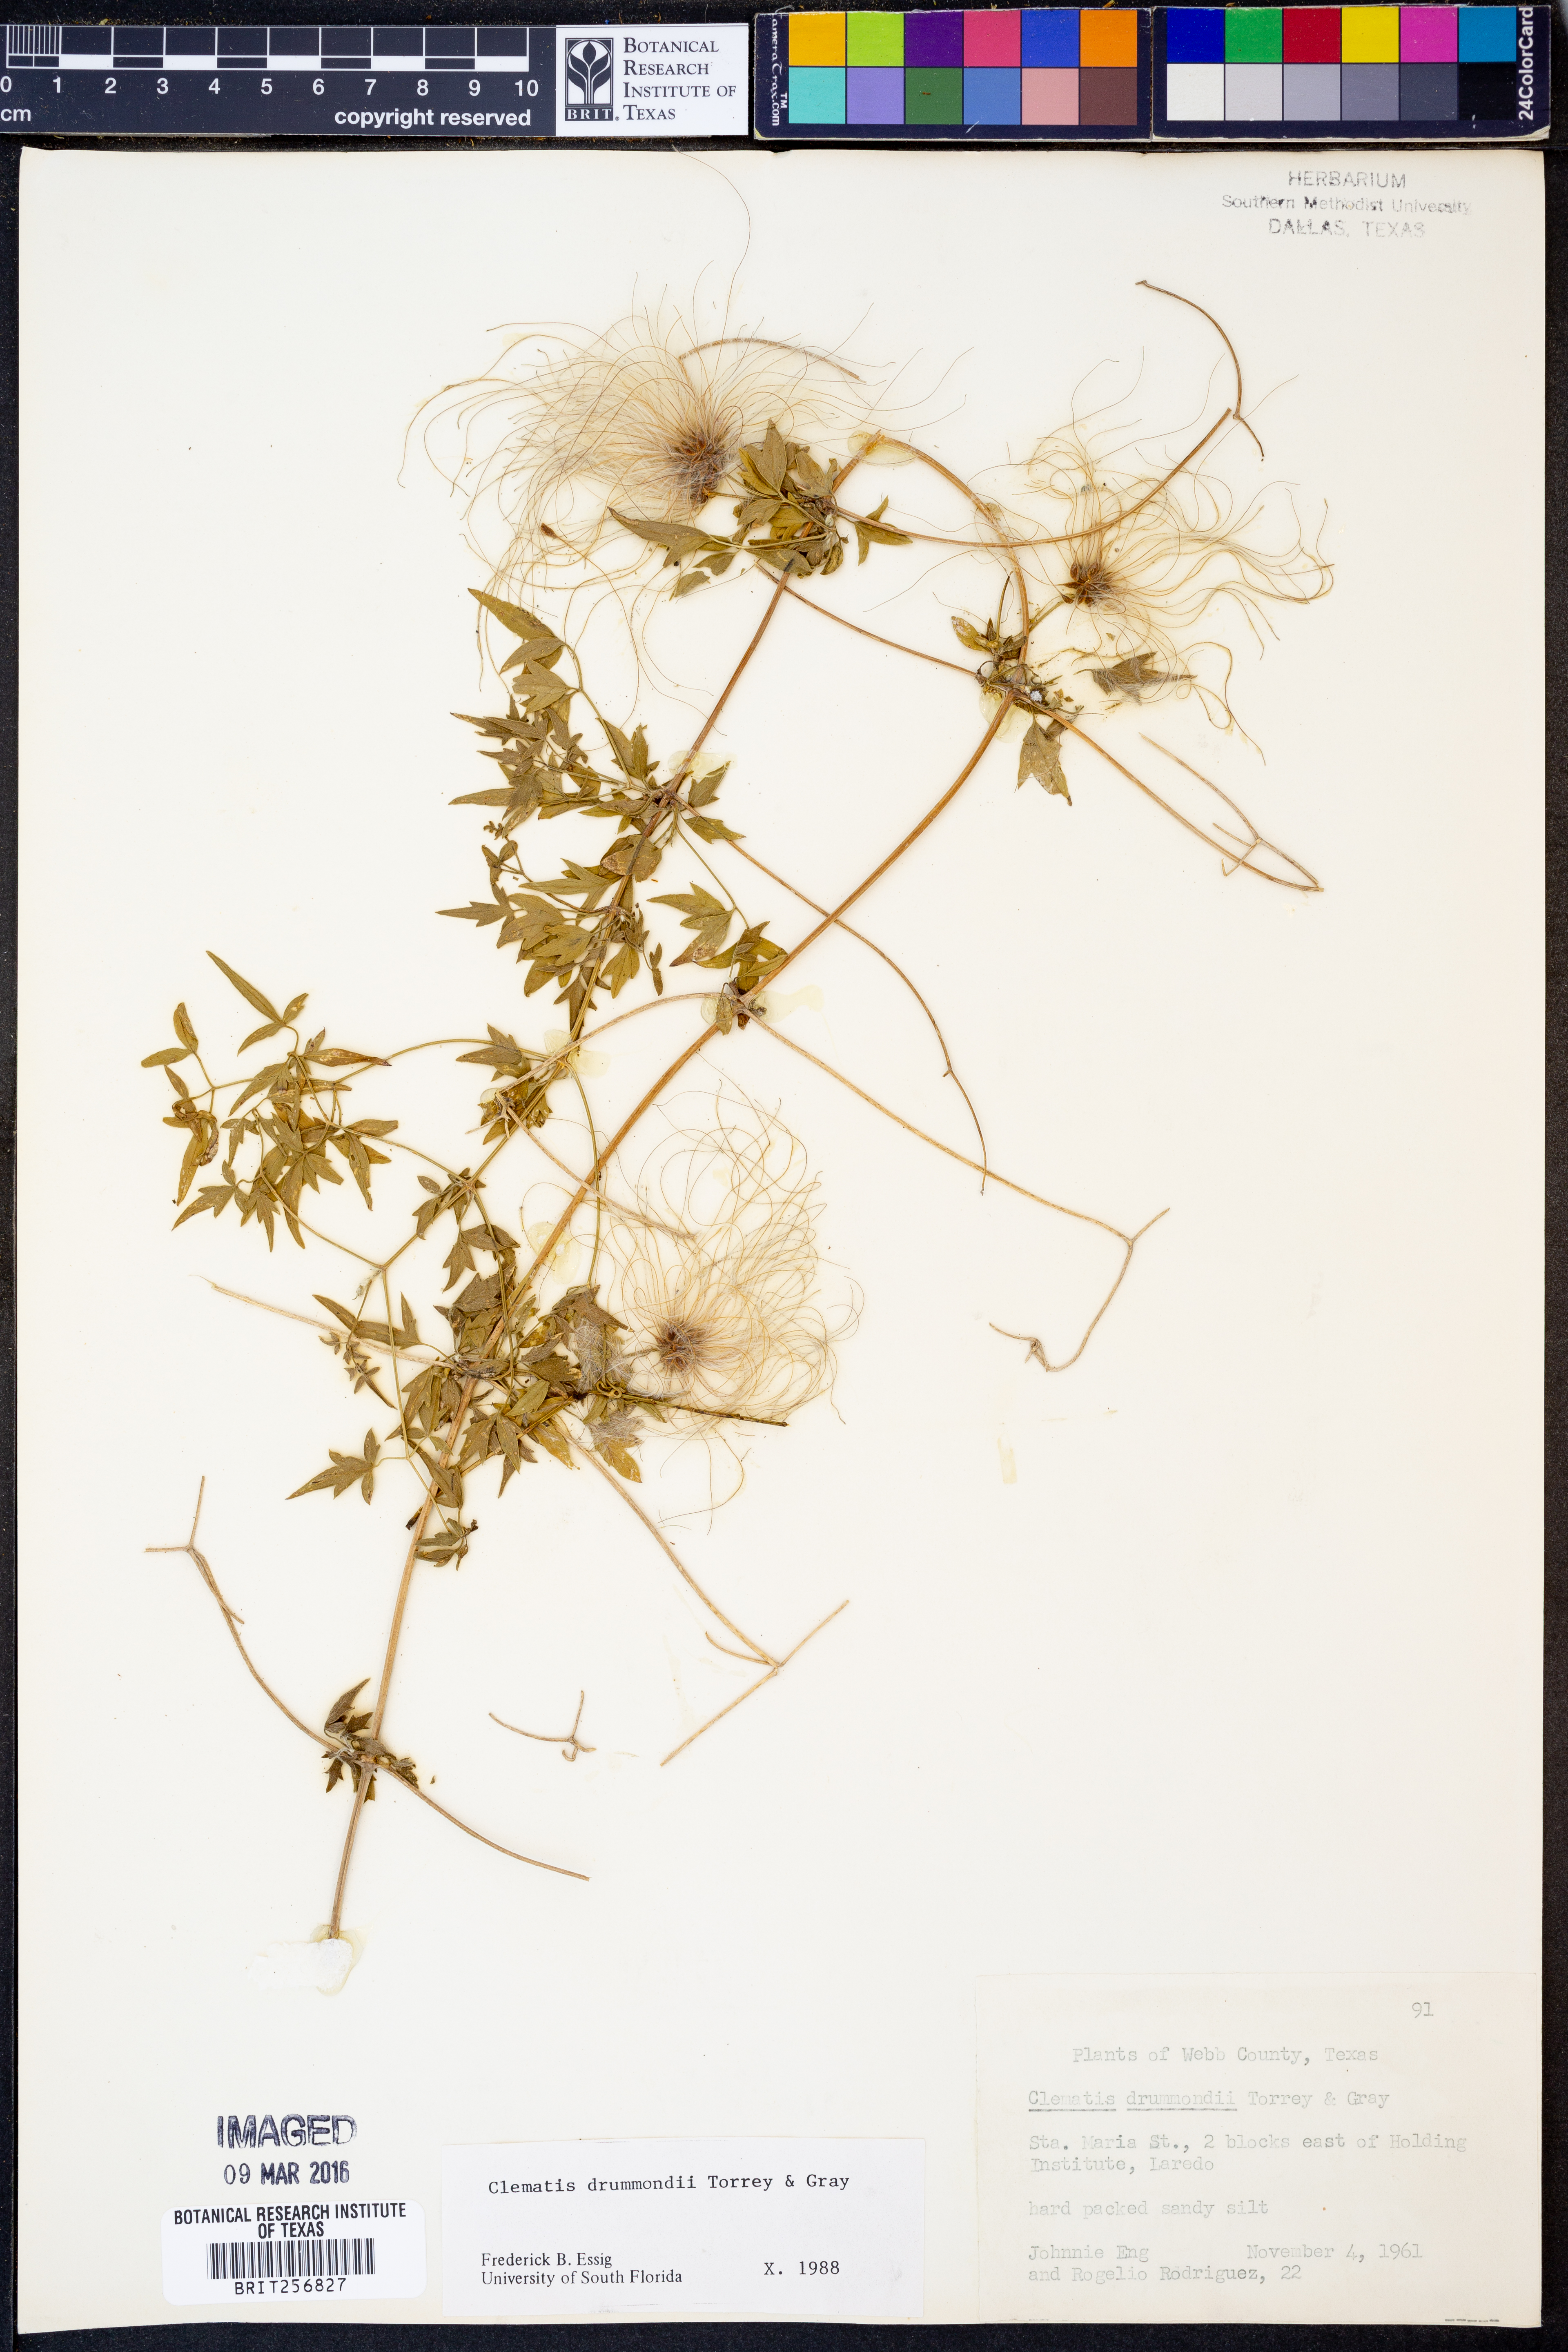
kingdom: Plantae
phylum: Tracheophyta
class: Magnoliopsida
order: Ranunculales
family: Ranunculaceae
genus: Clematis
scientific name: Clematis drummondii
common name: Texas virgin's bower
